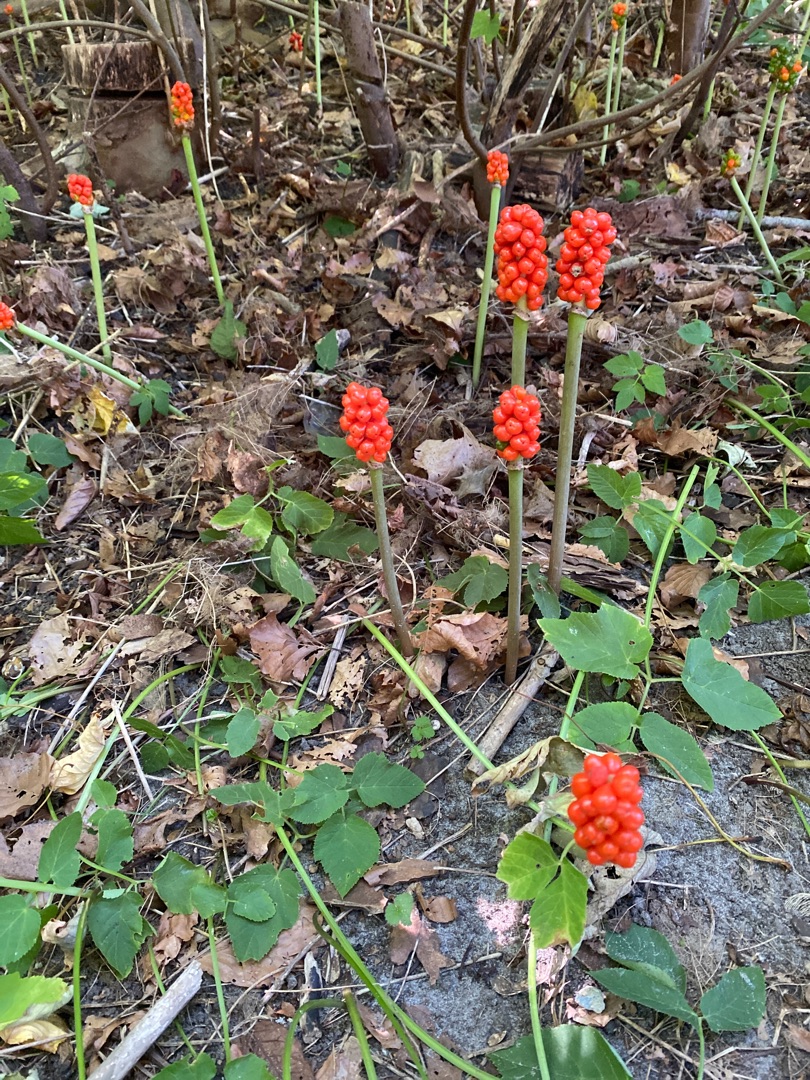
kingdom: Plantae
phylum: Tracheophyta
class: Liliopsida
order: Alismatales
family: Araceae
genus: Arum
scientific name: Arum
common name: Arumslægten
